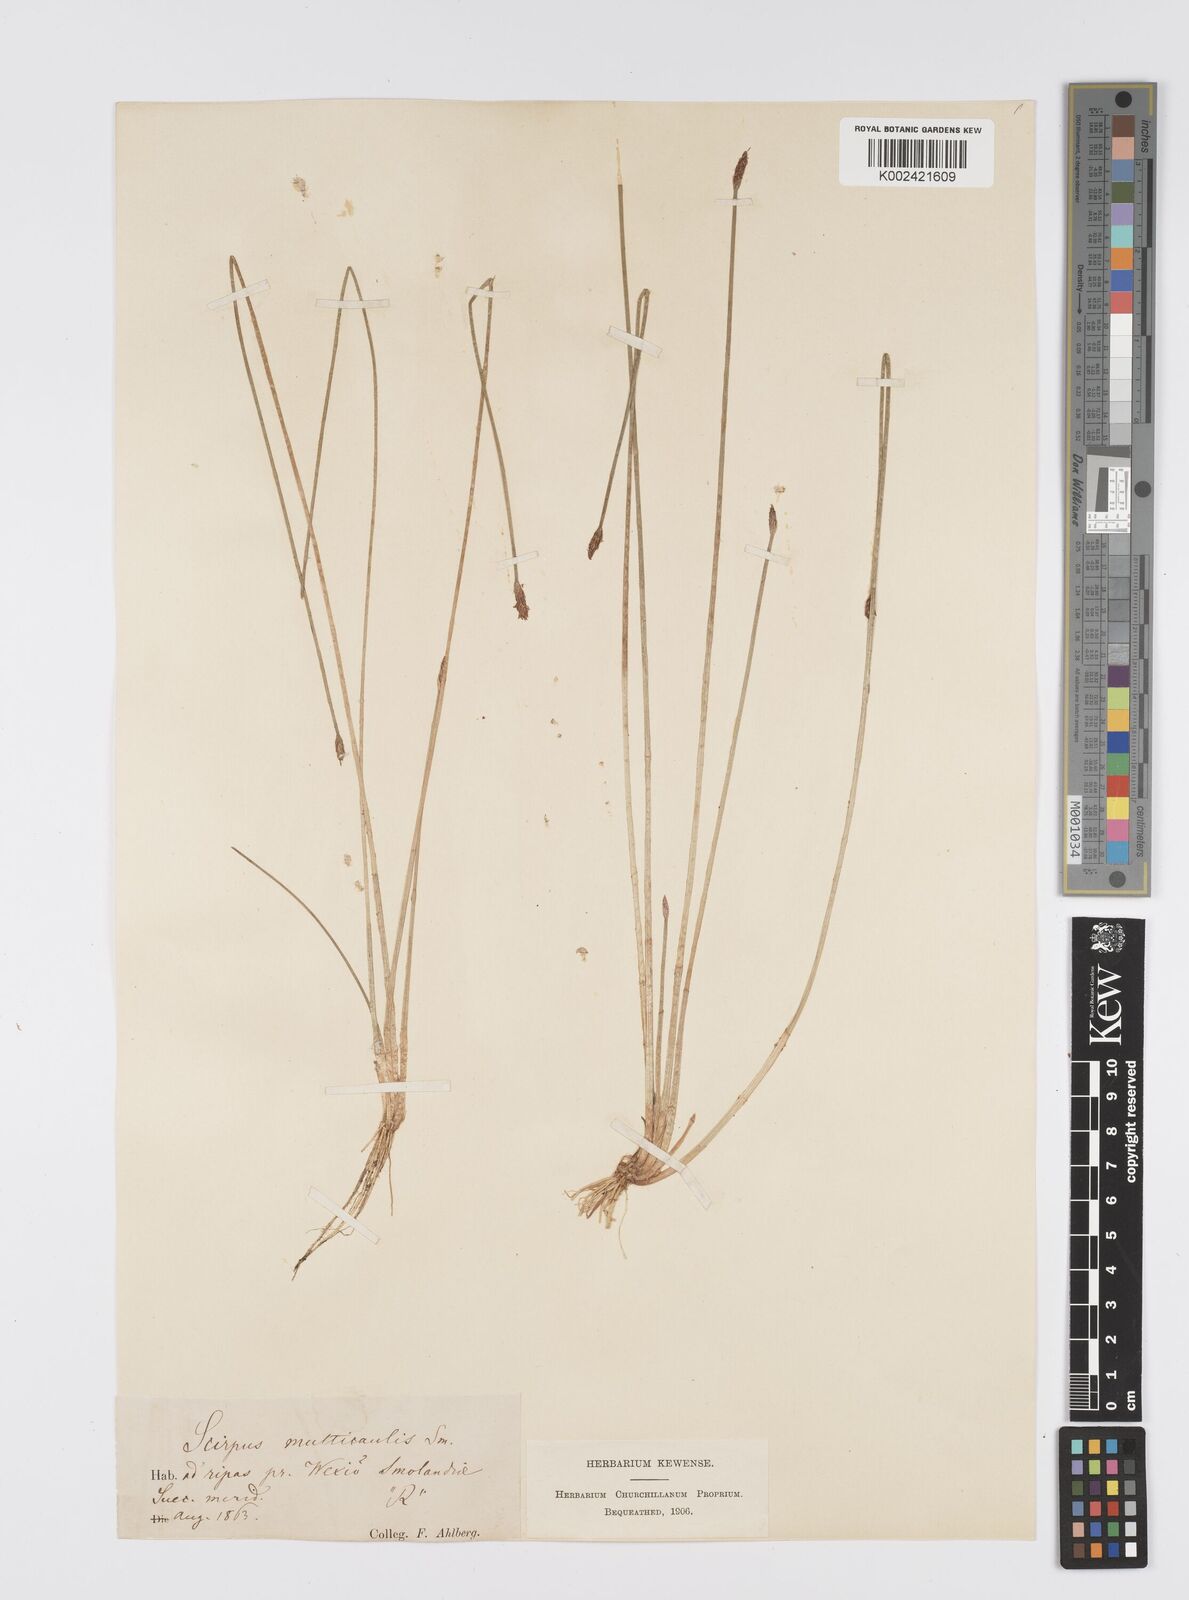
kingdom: Plantae
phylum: Tracheophyta
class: Liliopsida
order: Poales
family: Cyperaceae
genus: Eleocharis
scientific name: Eleocharis multicaulis
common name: Many-stalked spike-rush
